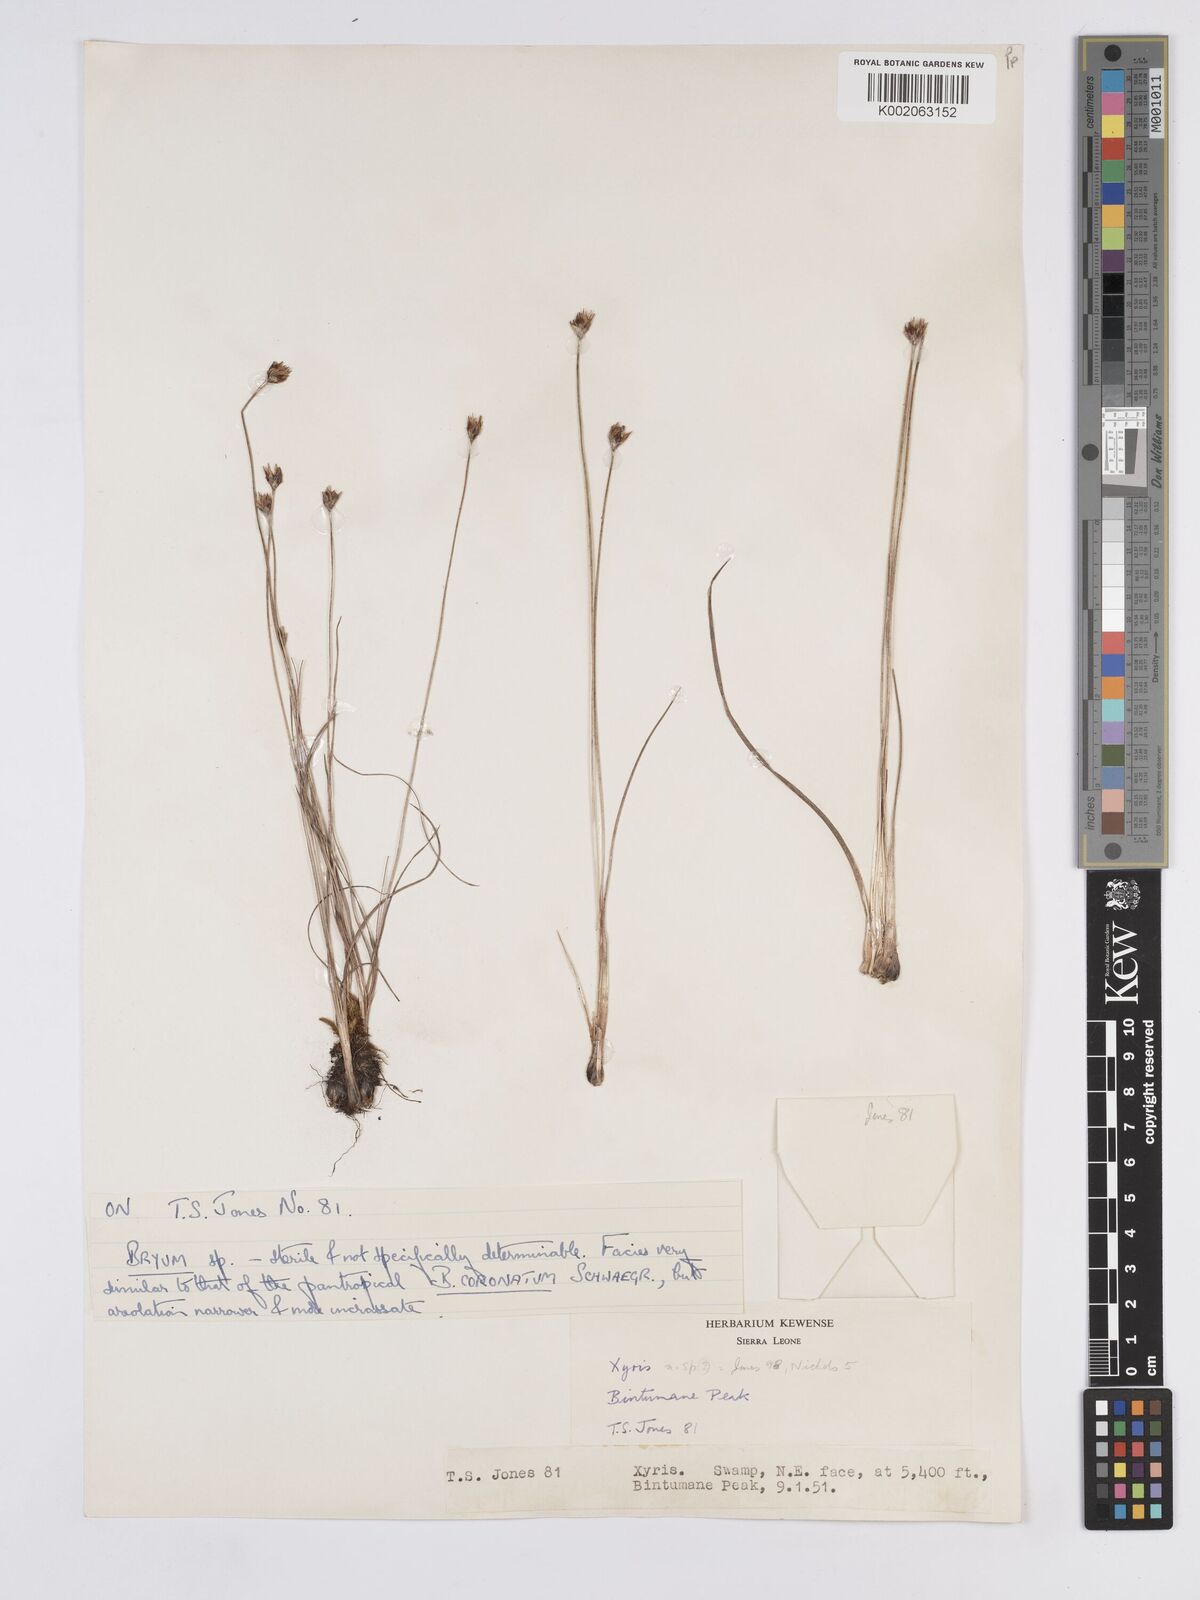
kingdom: Plantae
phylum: Tracheophyta
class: Liliopsida
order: Poales
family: Xyridaceae
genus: Xyris
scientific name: Xyris festucifolia
